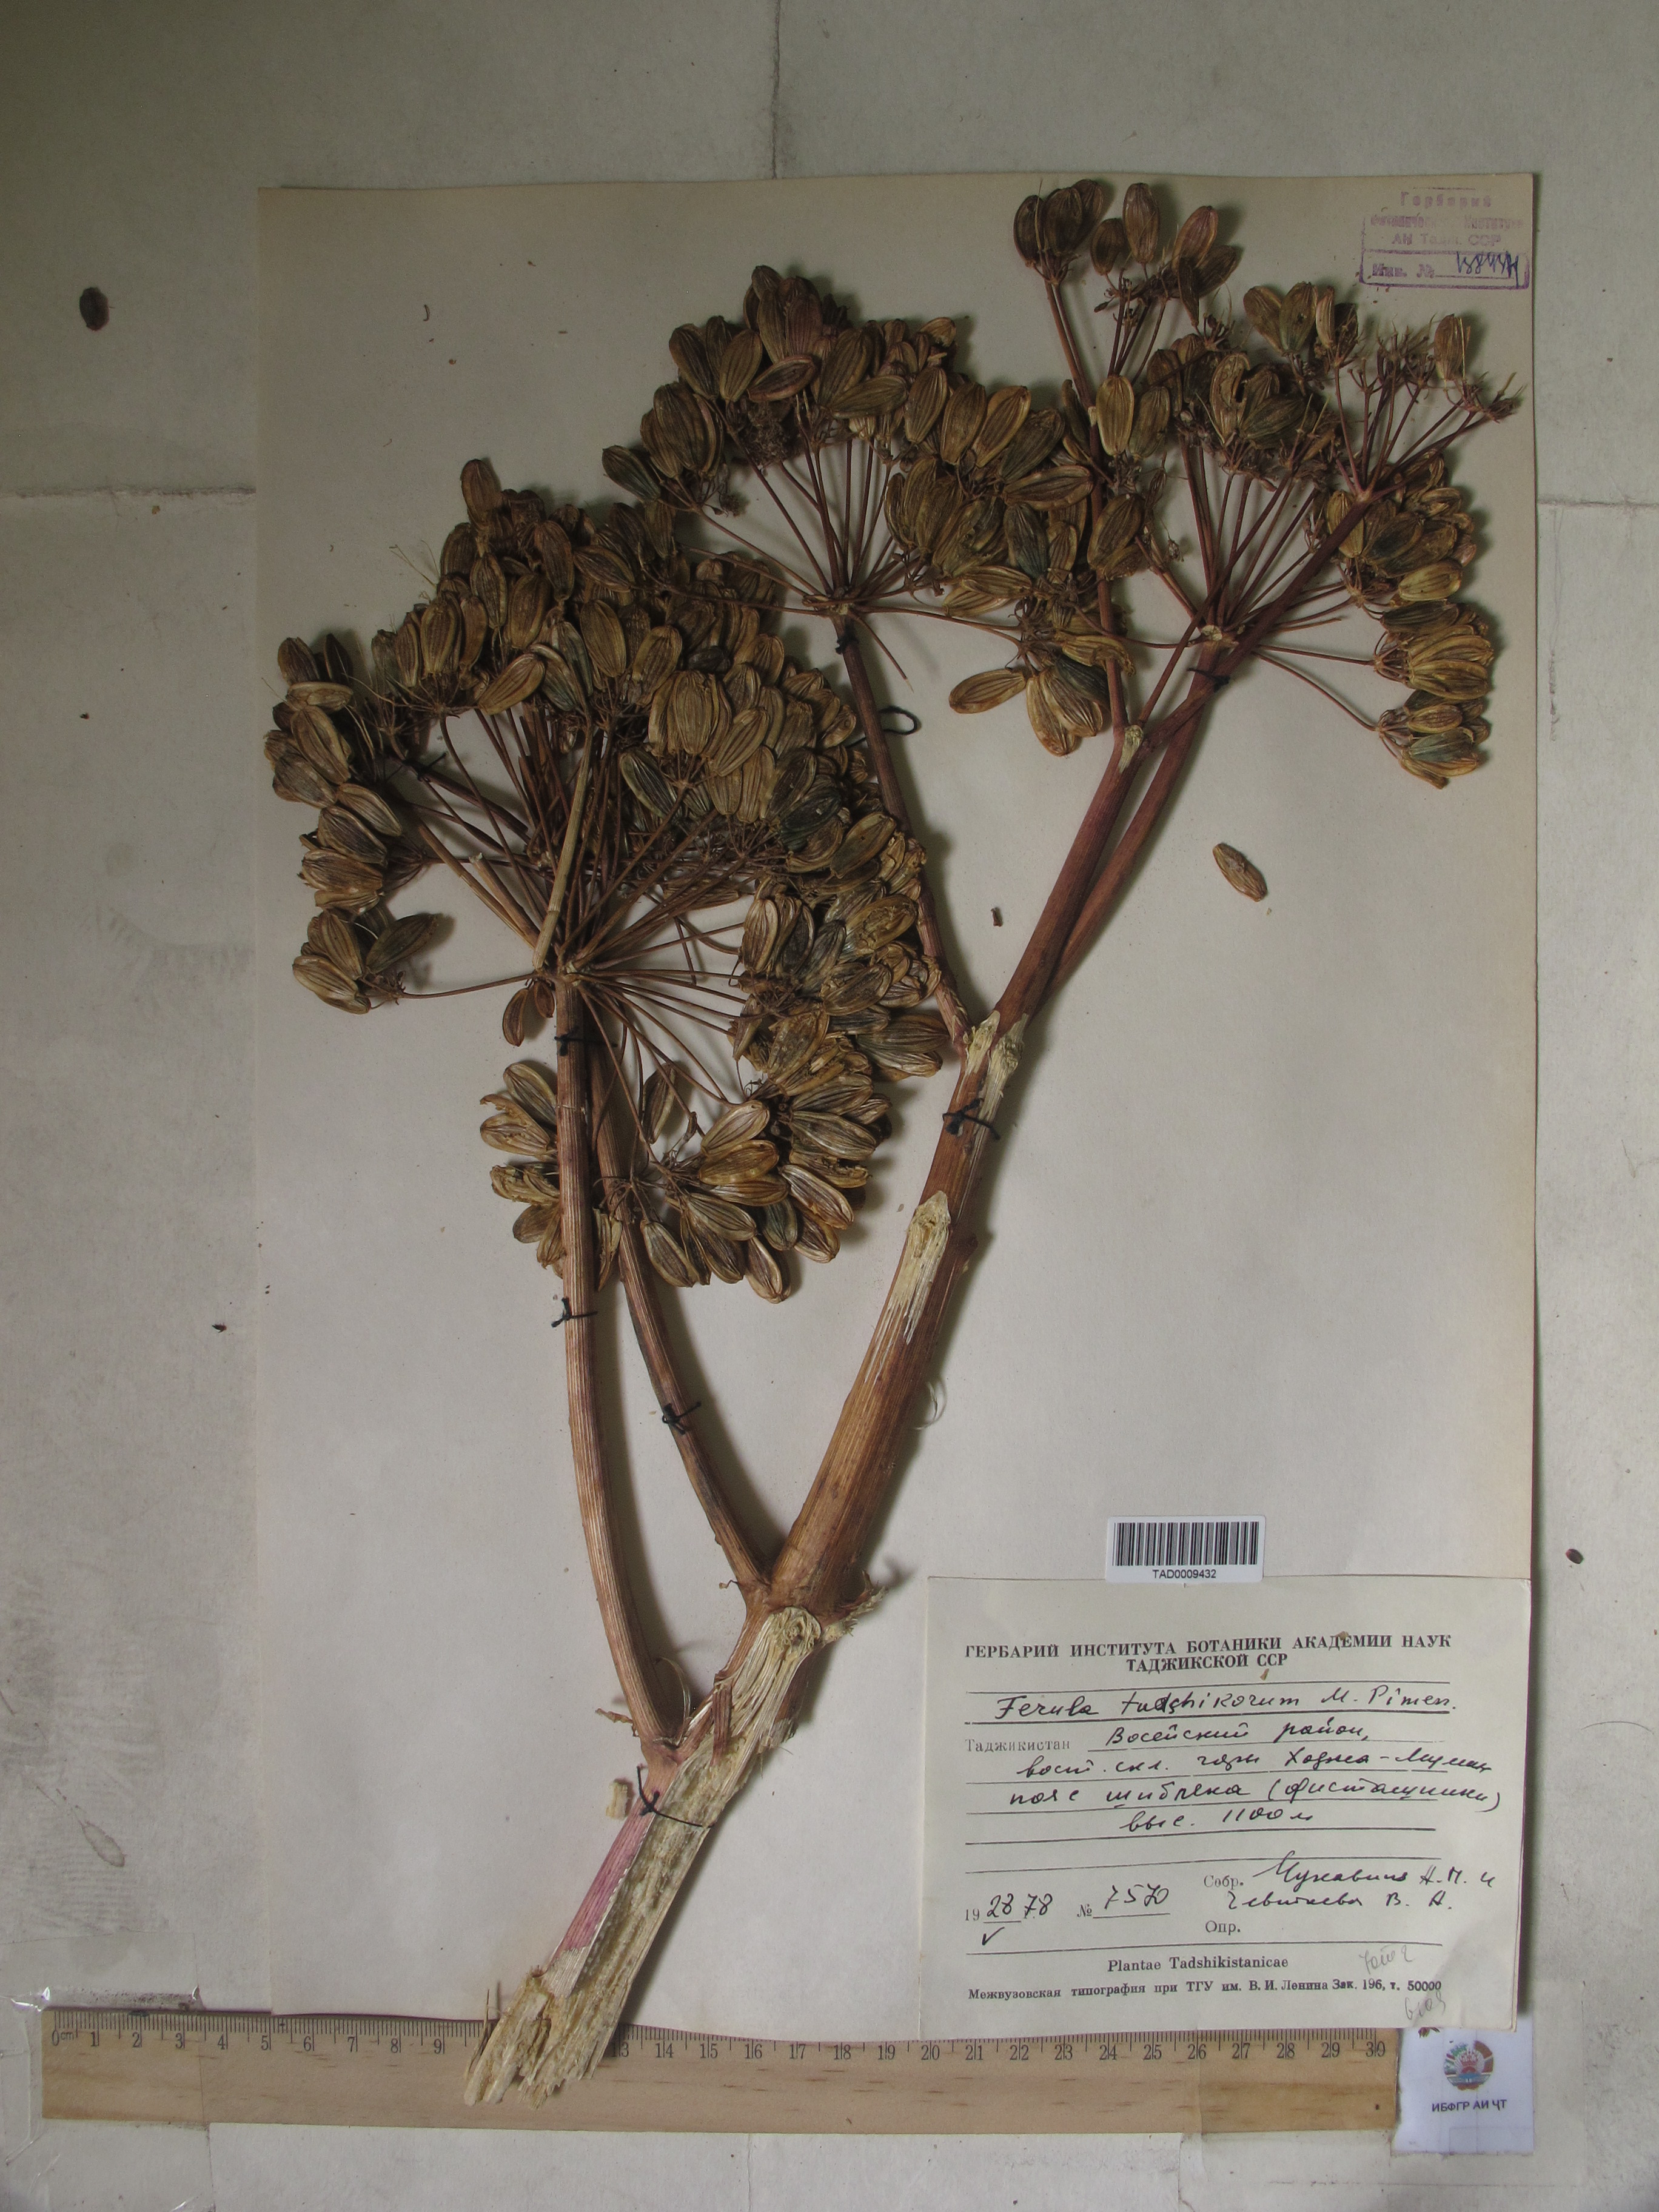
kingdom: Plantae
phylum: Tracheophyta
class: Magnoliopsida
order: Apiales
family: Apiaceae
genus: Ferula
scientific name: Ferula tadshikorum
